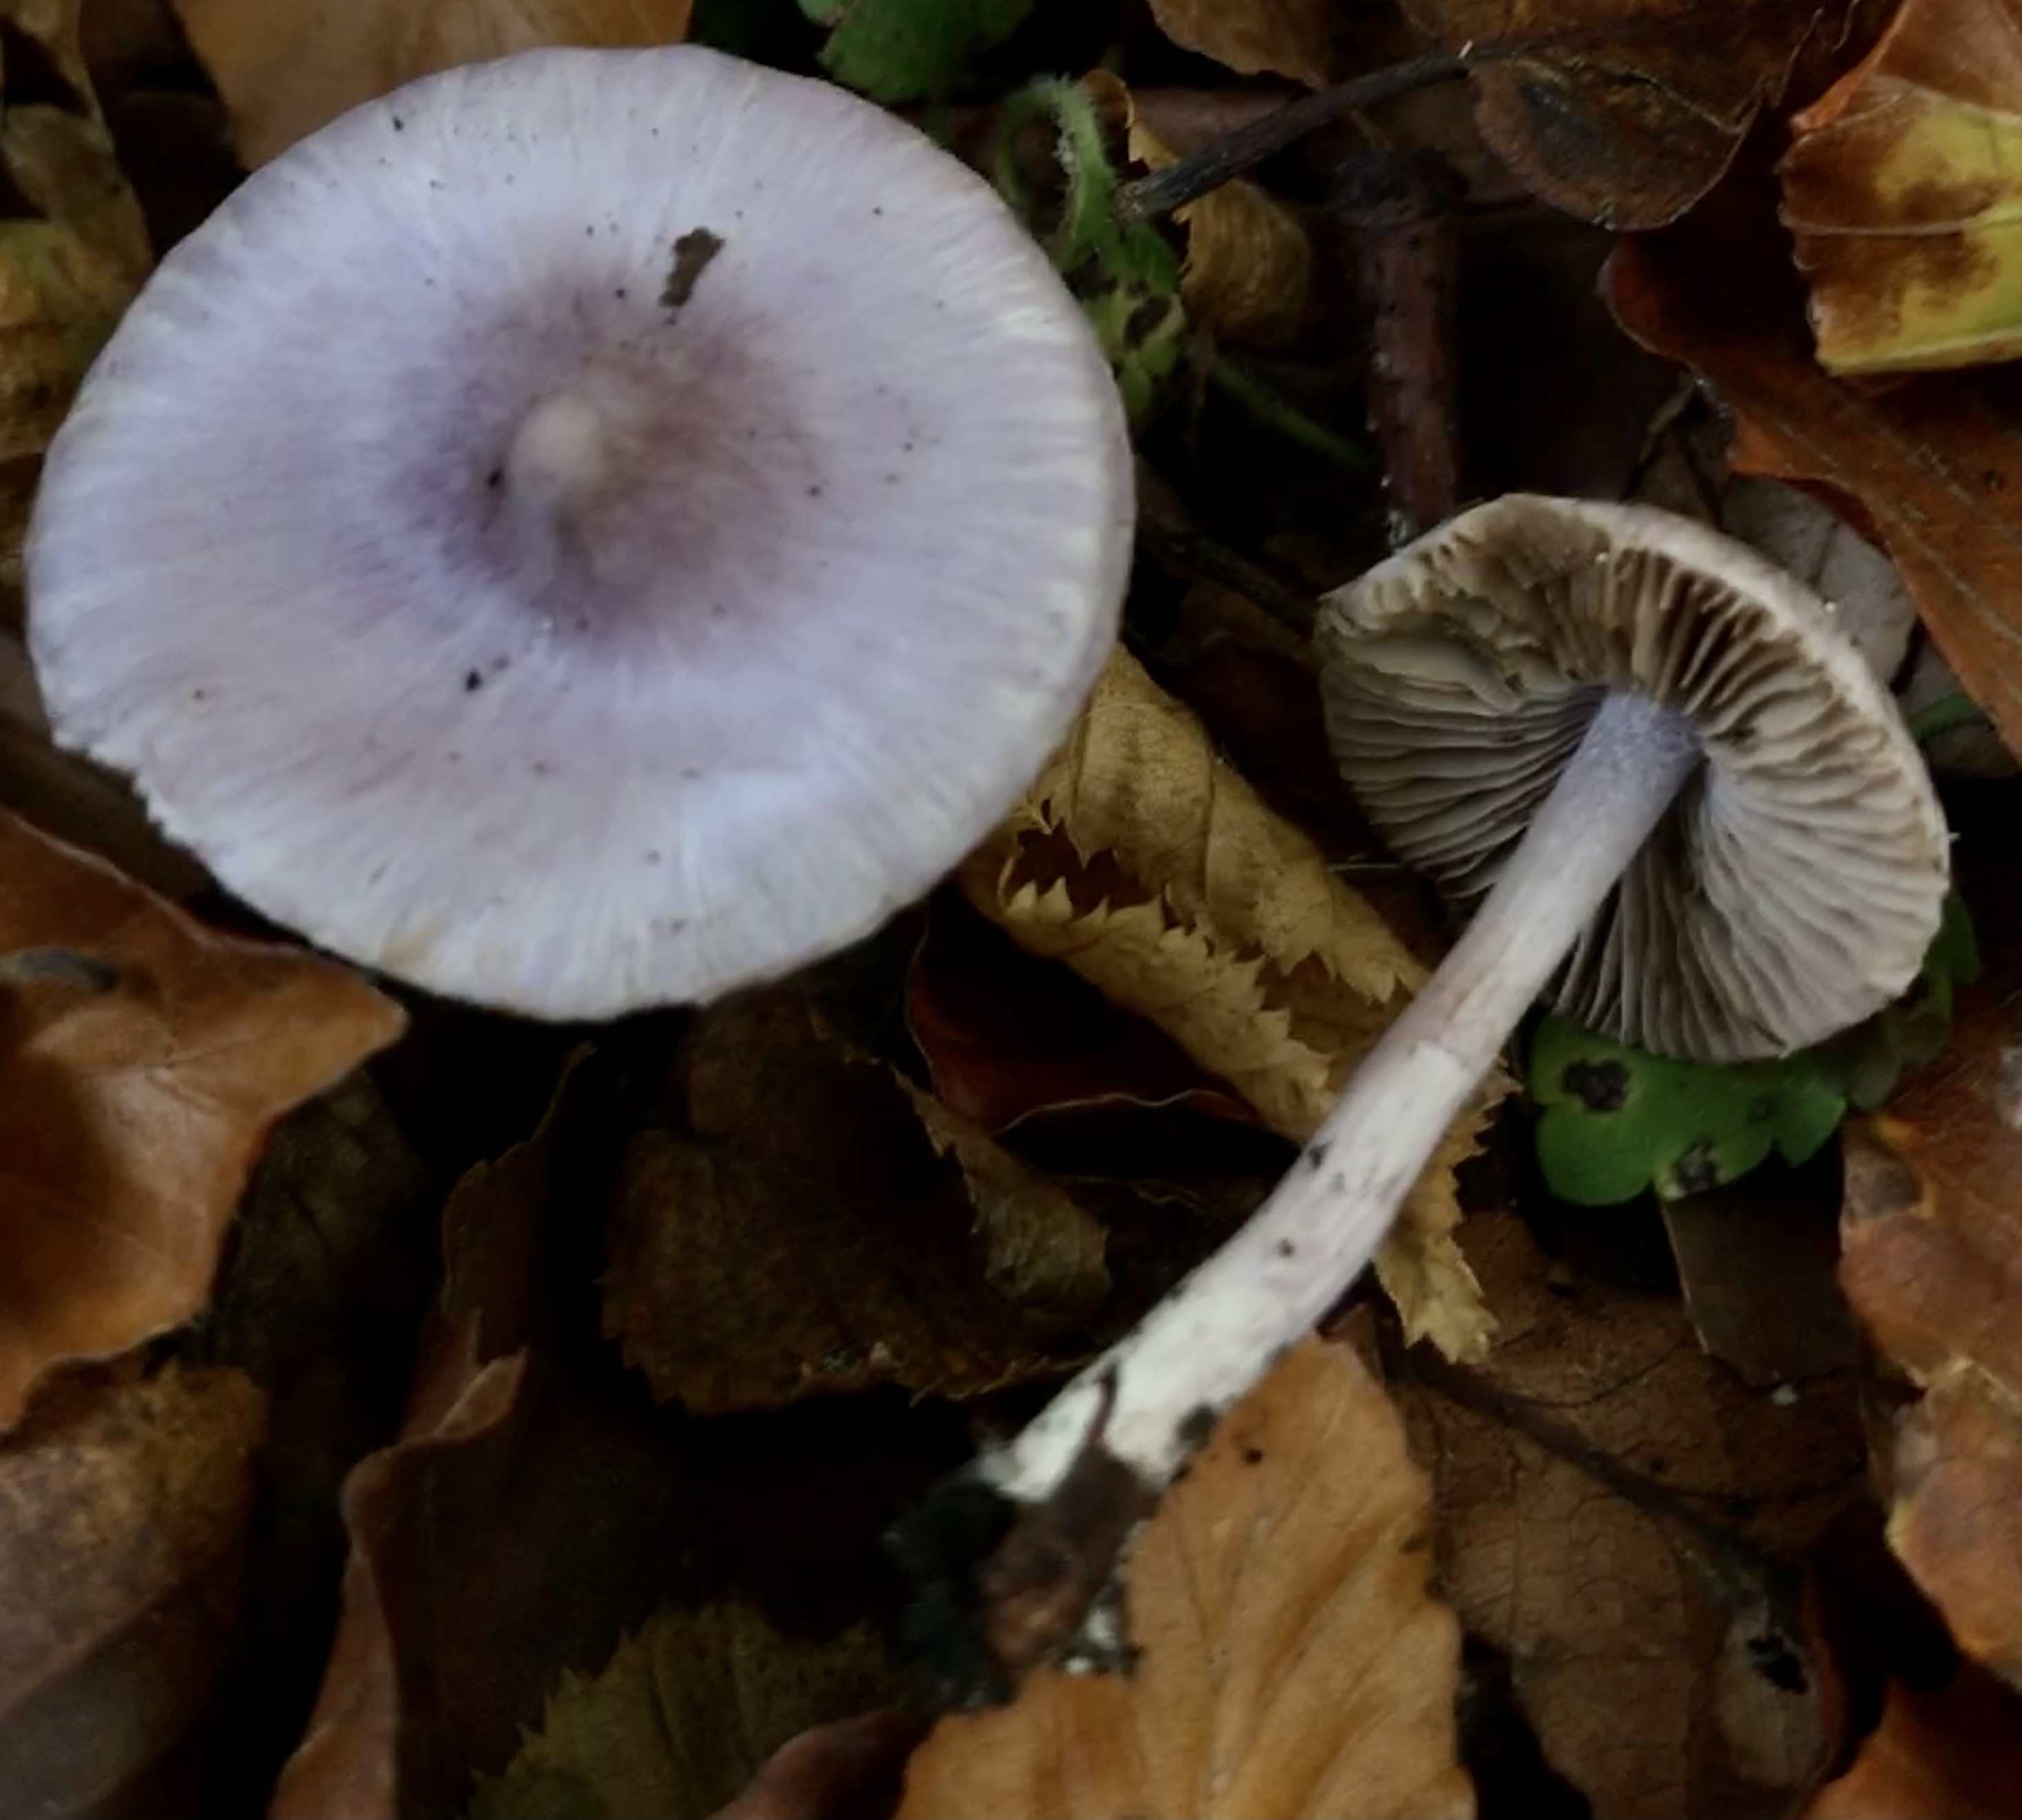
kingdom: Fungi
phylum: Basidiomycota
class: Agaricomycetes
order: Agaricales
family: Inocybaceae
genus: Inocybe
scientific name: Inocybe geophylla
